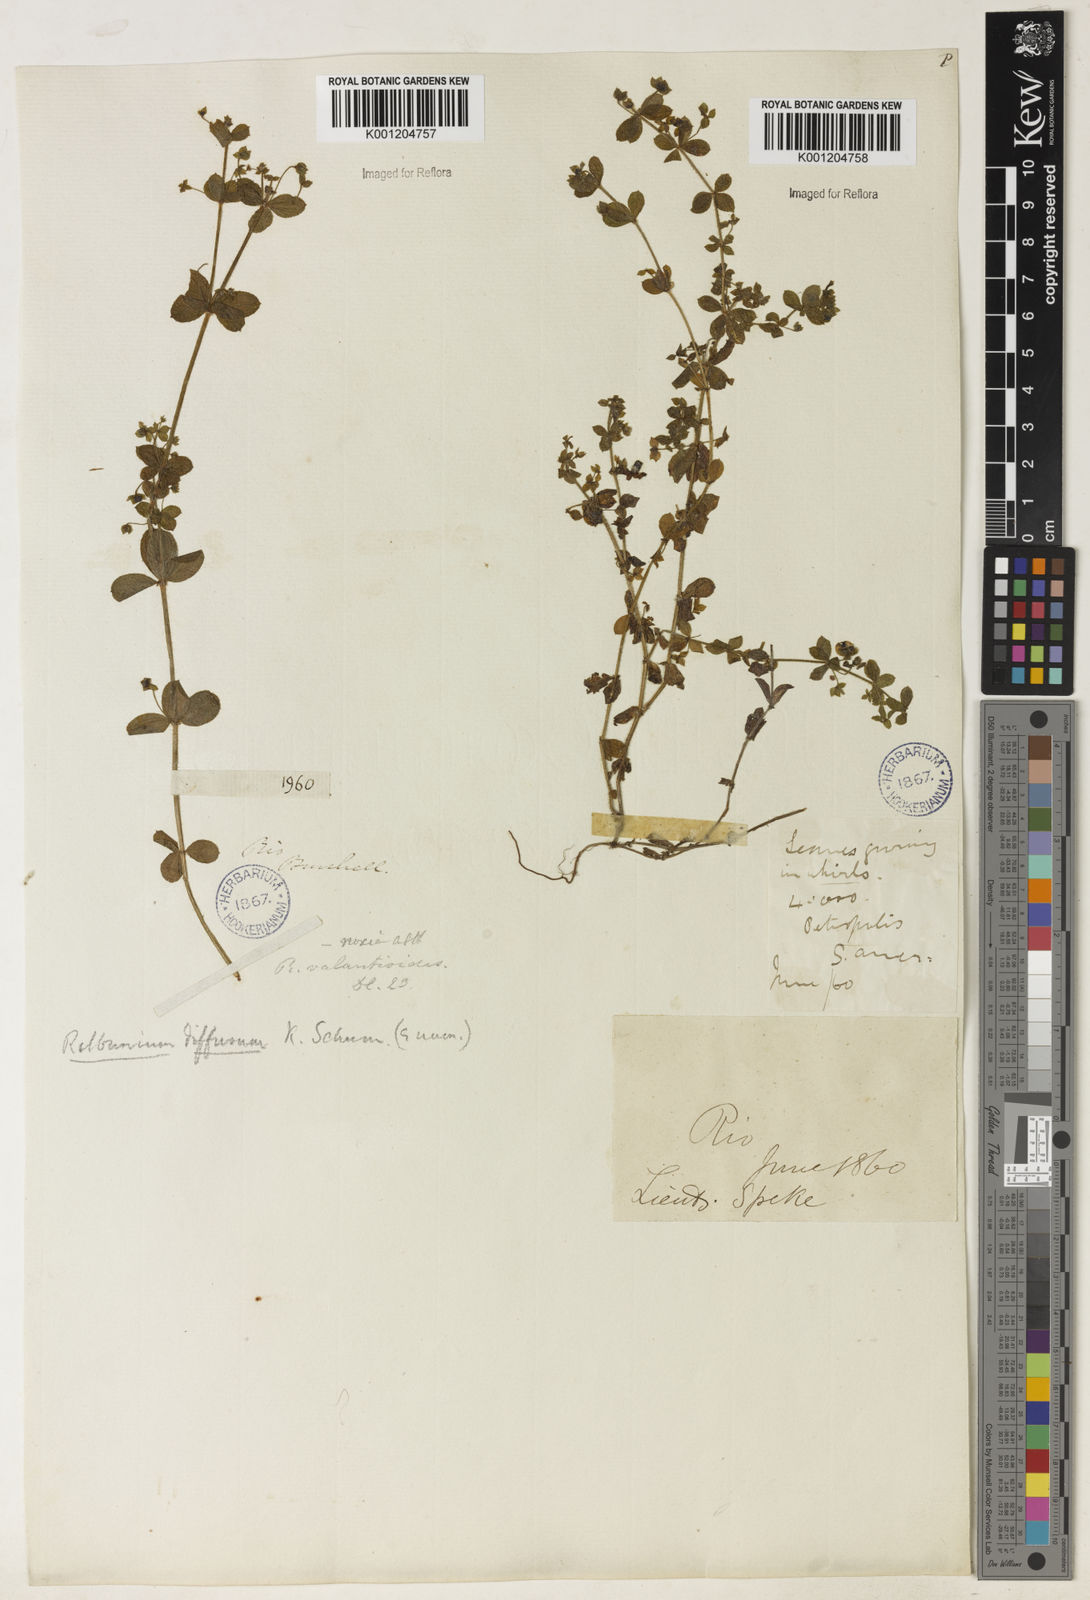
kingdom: Plantae
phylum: Tracheophyta
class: Magnoliopsida
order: Gentianales
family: Rubiaceae
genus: Galium
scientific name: Galium noxium
